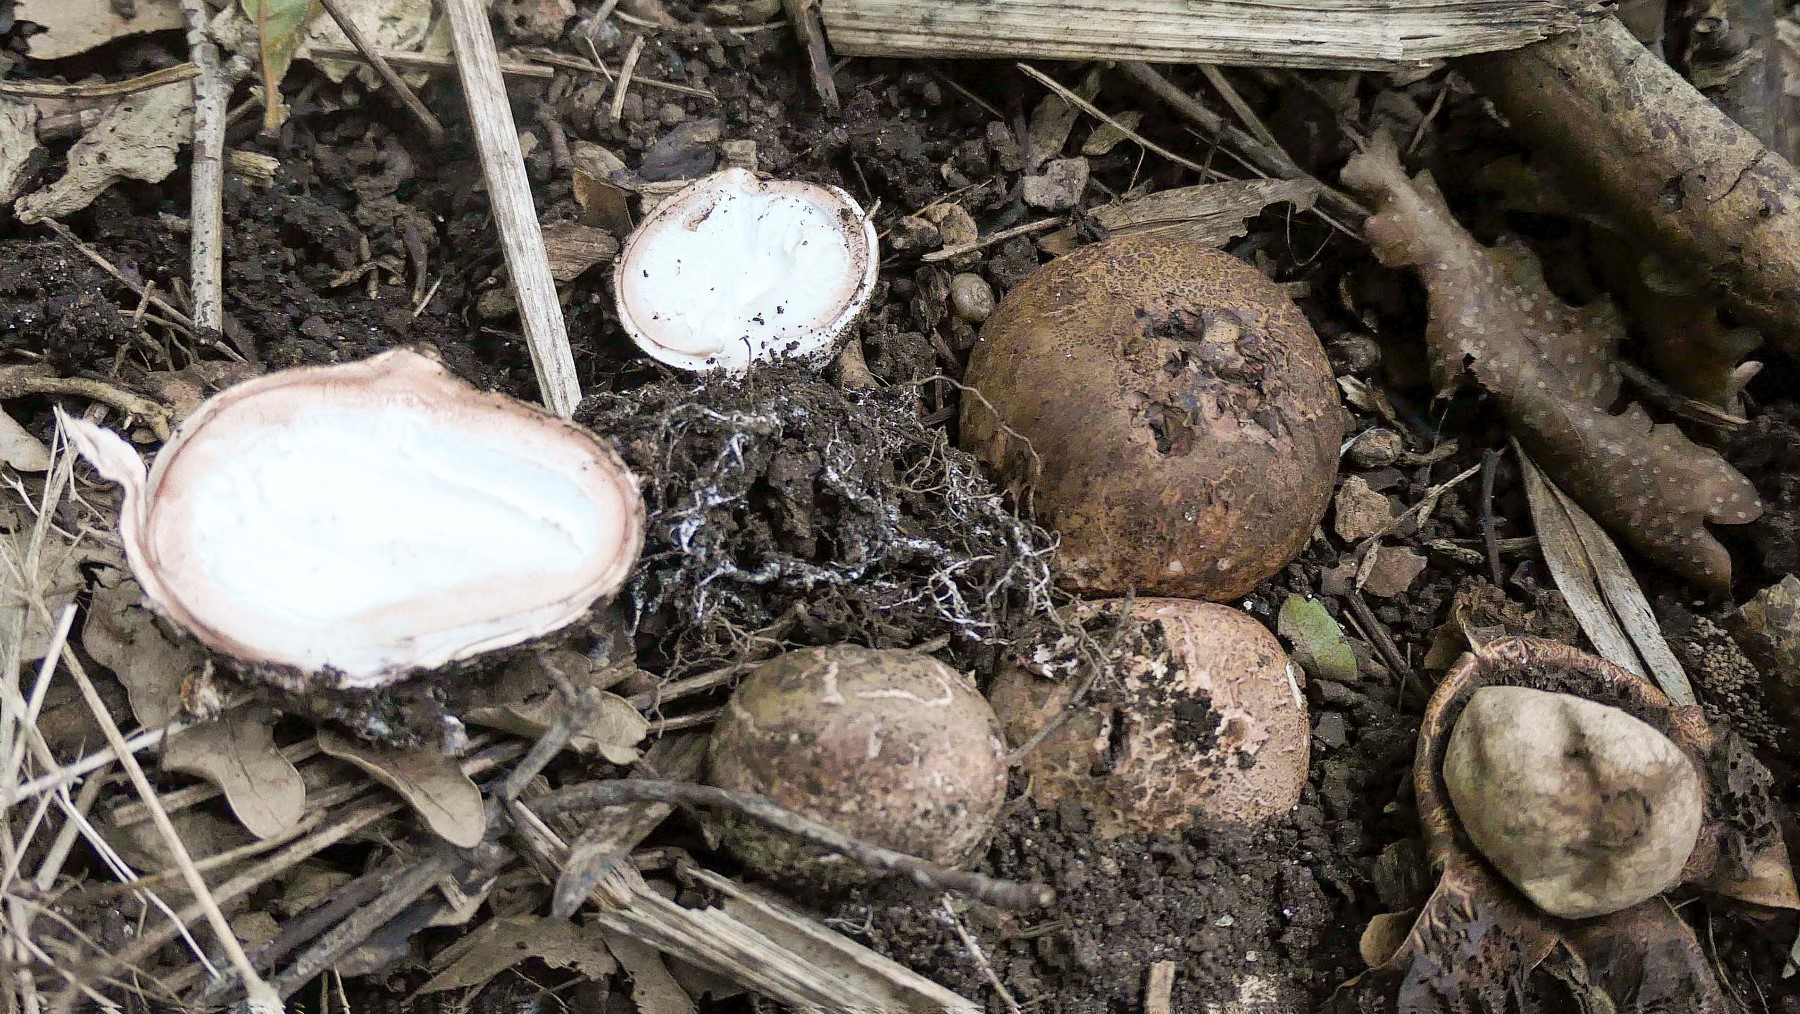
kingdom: Fungi
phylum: Basidiomycota
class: Agaricomycetes
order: Geastrales
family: Geastraceae
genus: Geastrum
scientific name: Geastrum rufescens
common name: kødfarvet stjernebold
